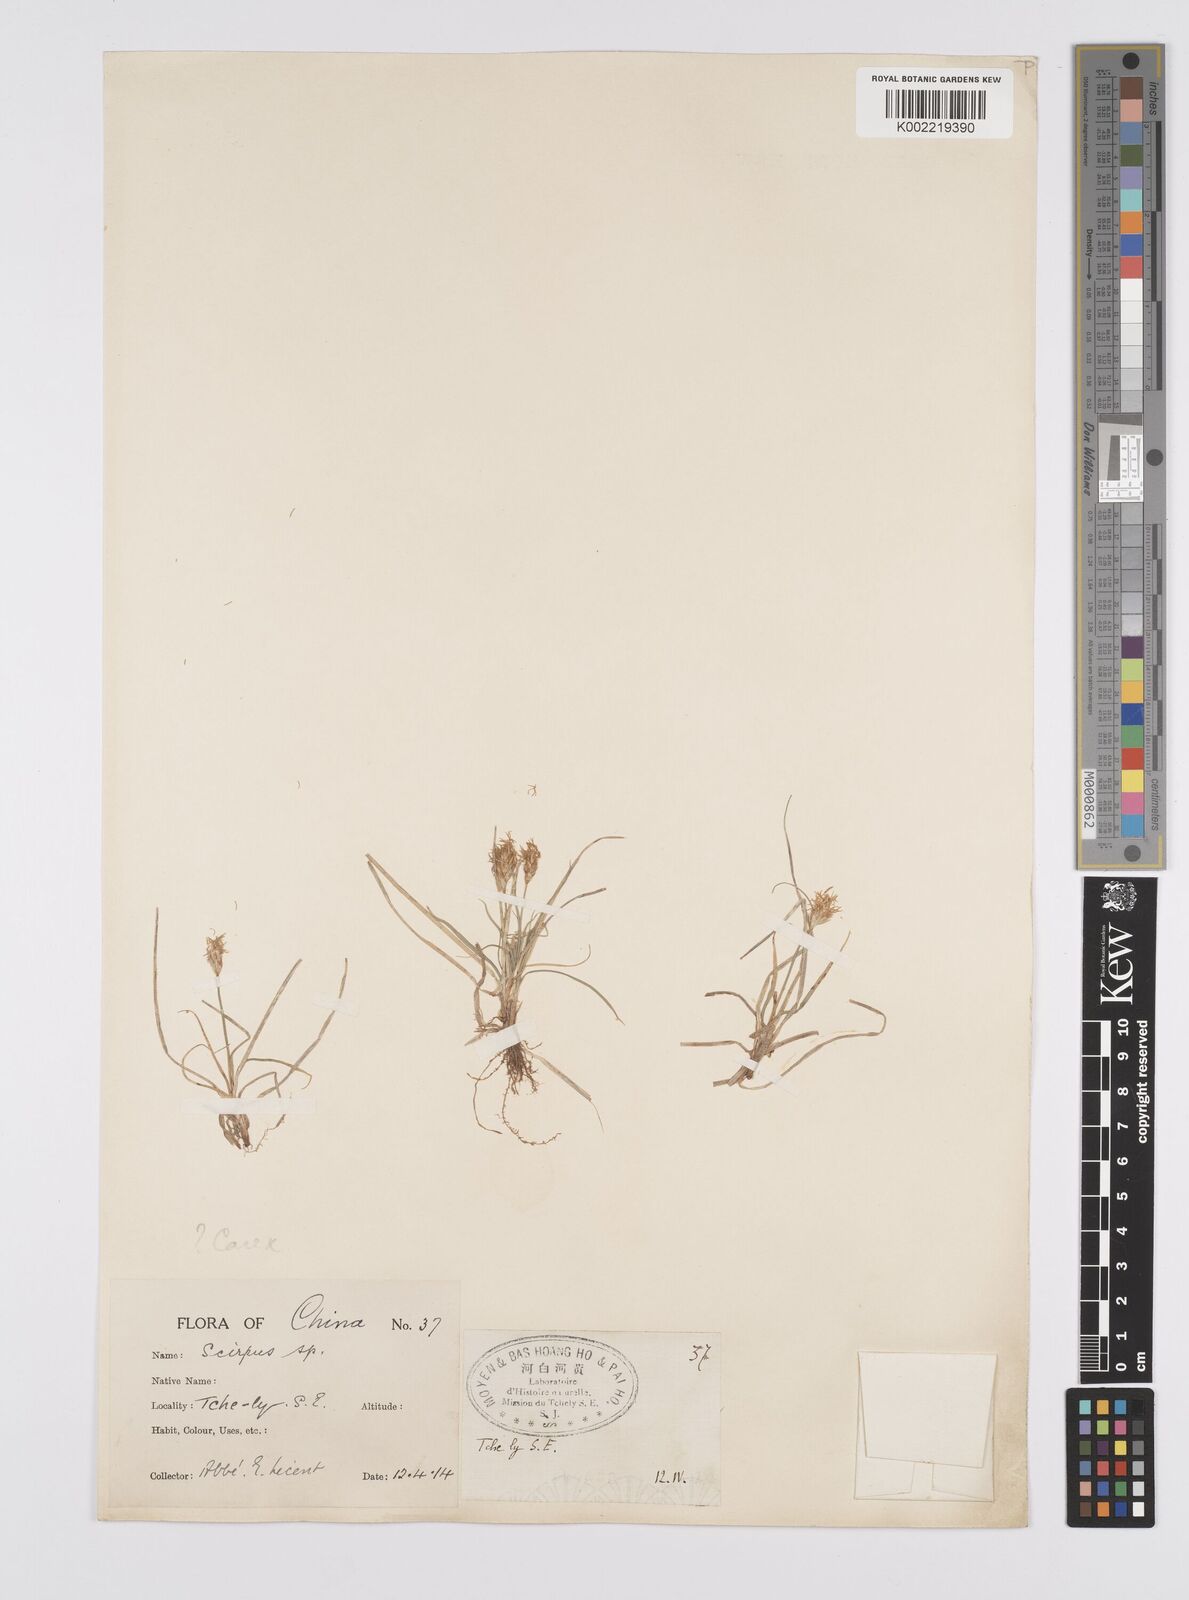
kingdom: Plantae
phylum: Tracheophyta
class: Liliopsida
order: Poales
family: Cyperaceae
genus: Carex
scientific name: Carex stenophylla
